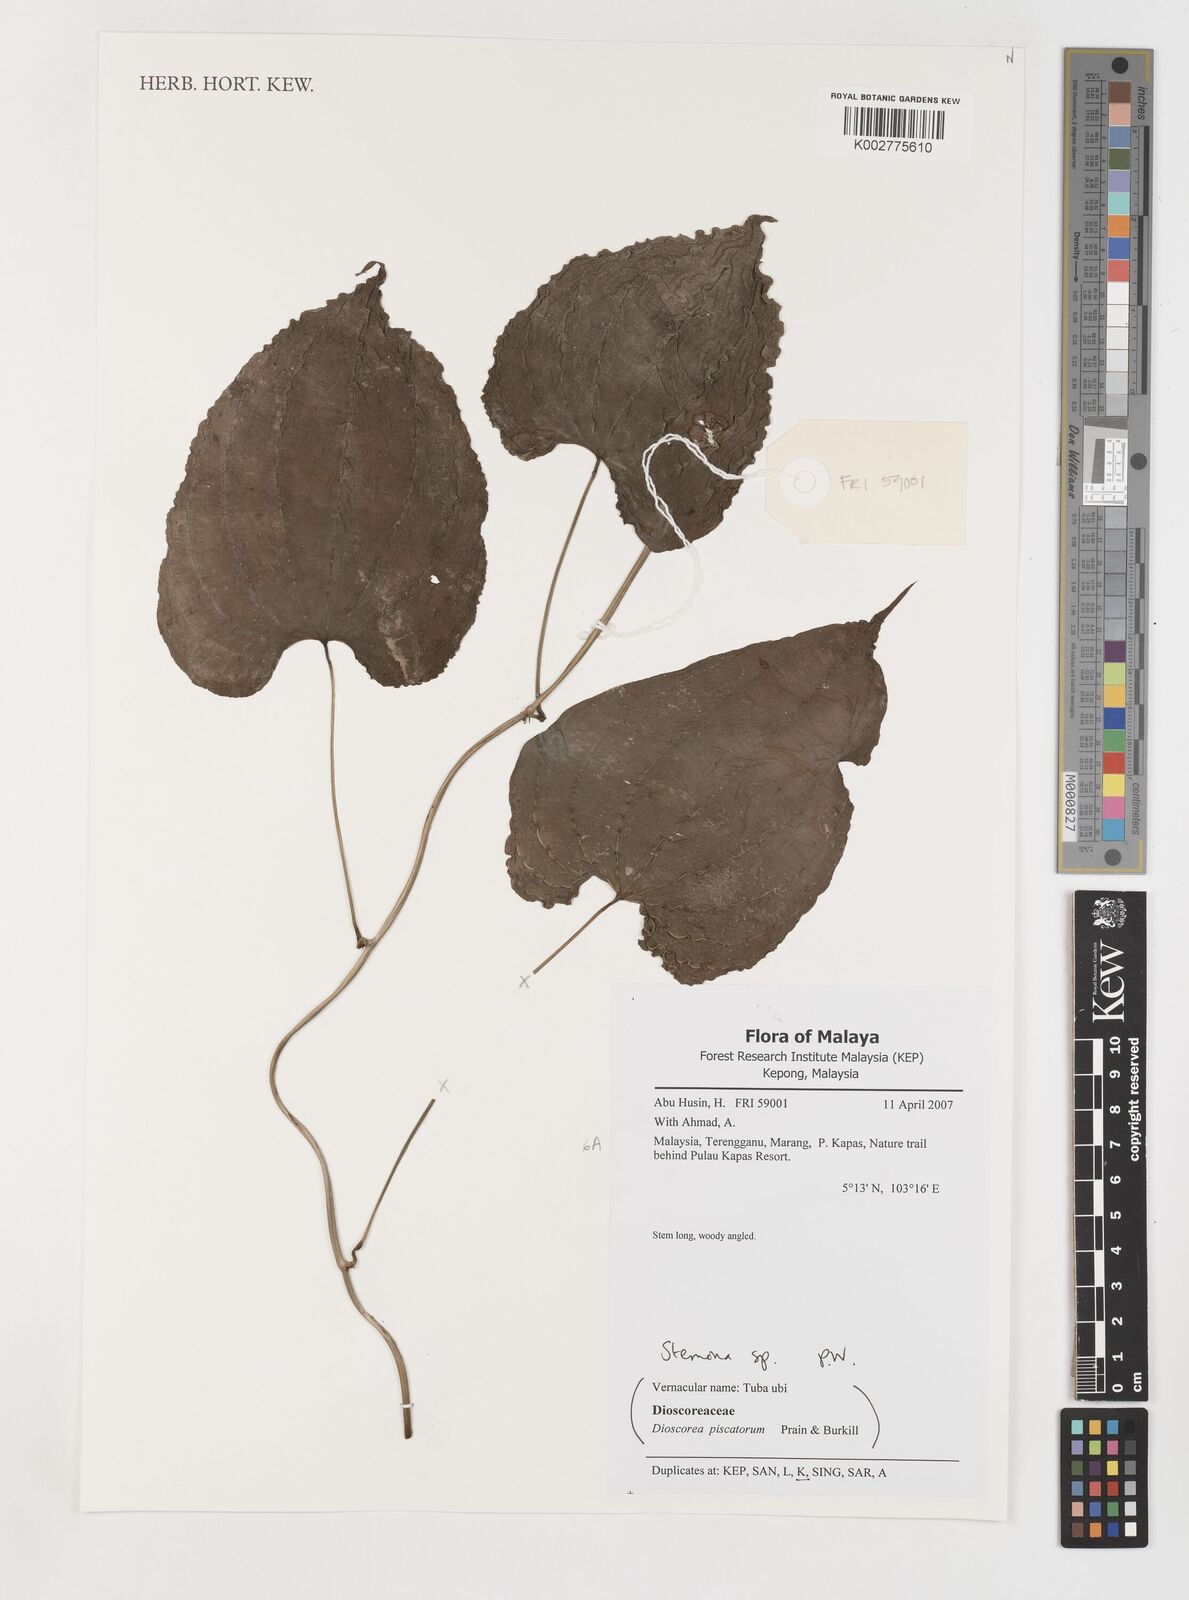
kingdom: Plantae
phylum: Tracheophyta
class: Liliopsida
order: Pandanales
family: Stemonaceae
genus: Stemona
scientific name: Stemona tuberosa
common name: Stemona
